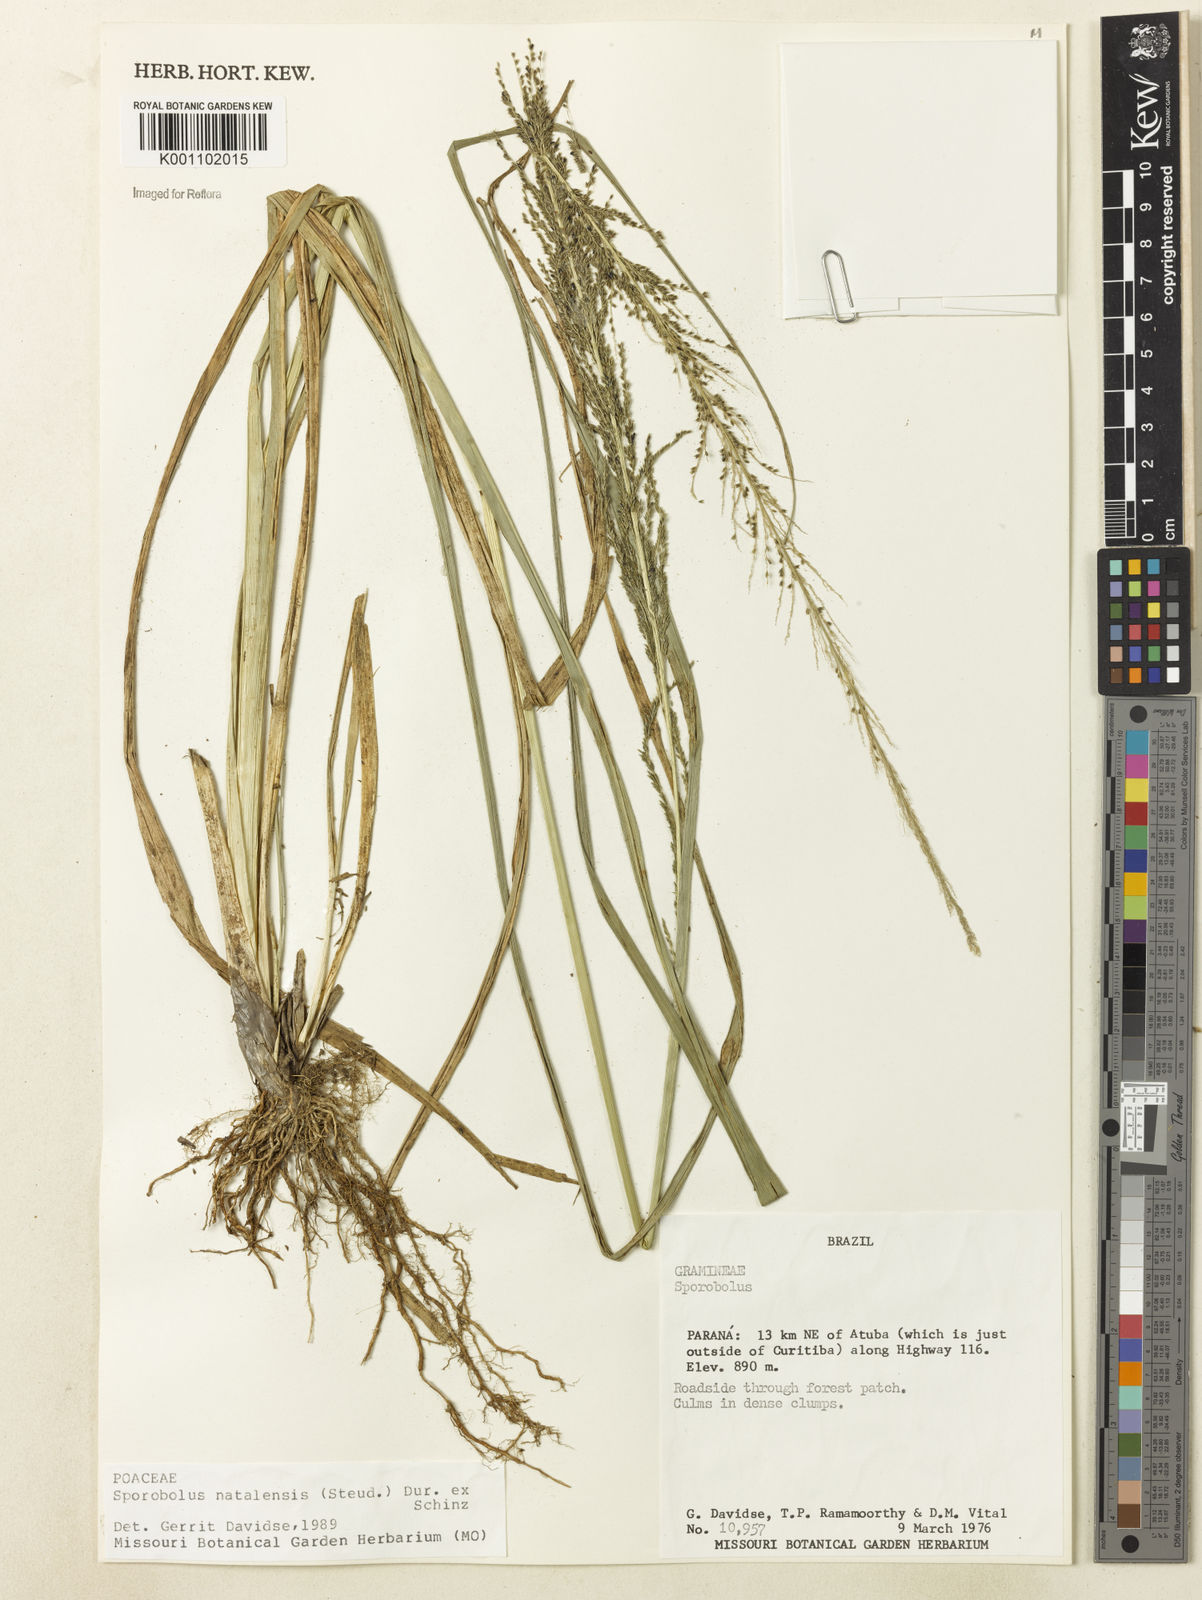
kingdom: Plantae
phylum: Tracheophyta
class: Liliopsida
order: Poales
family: Poaceae
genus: Sporobolus
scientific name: Sporobolus natalensis
